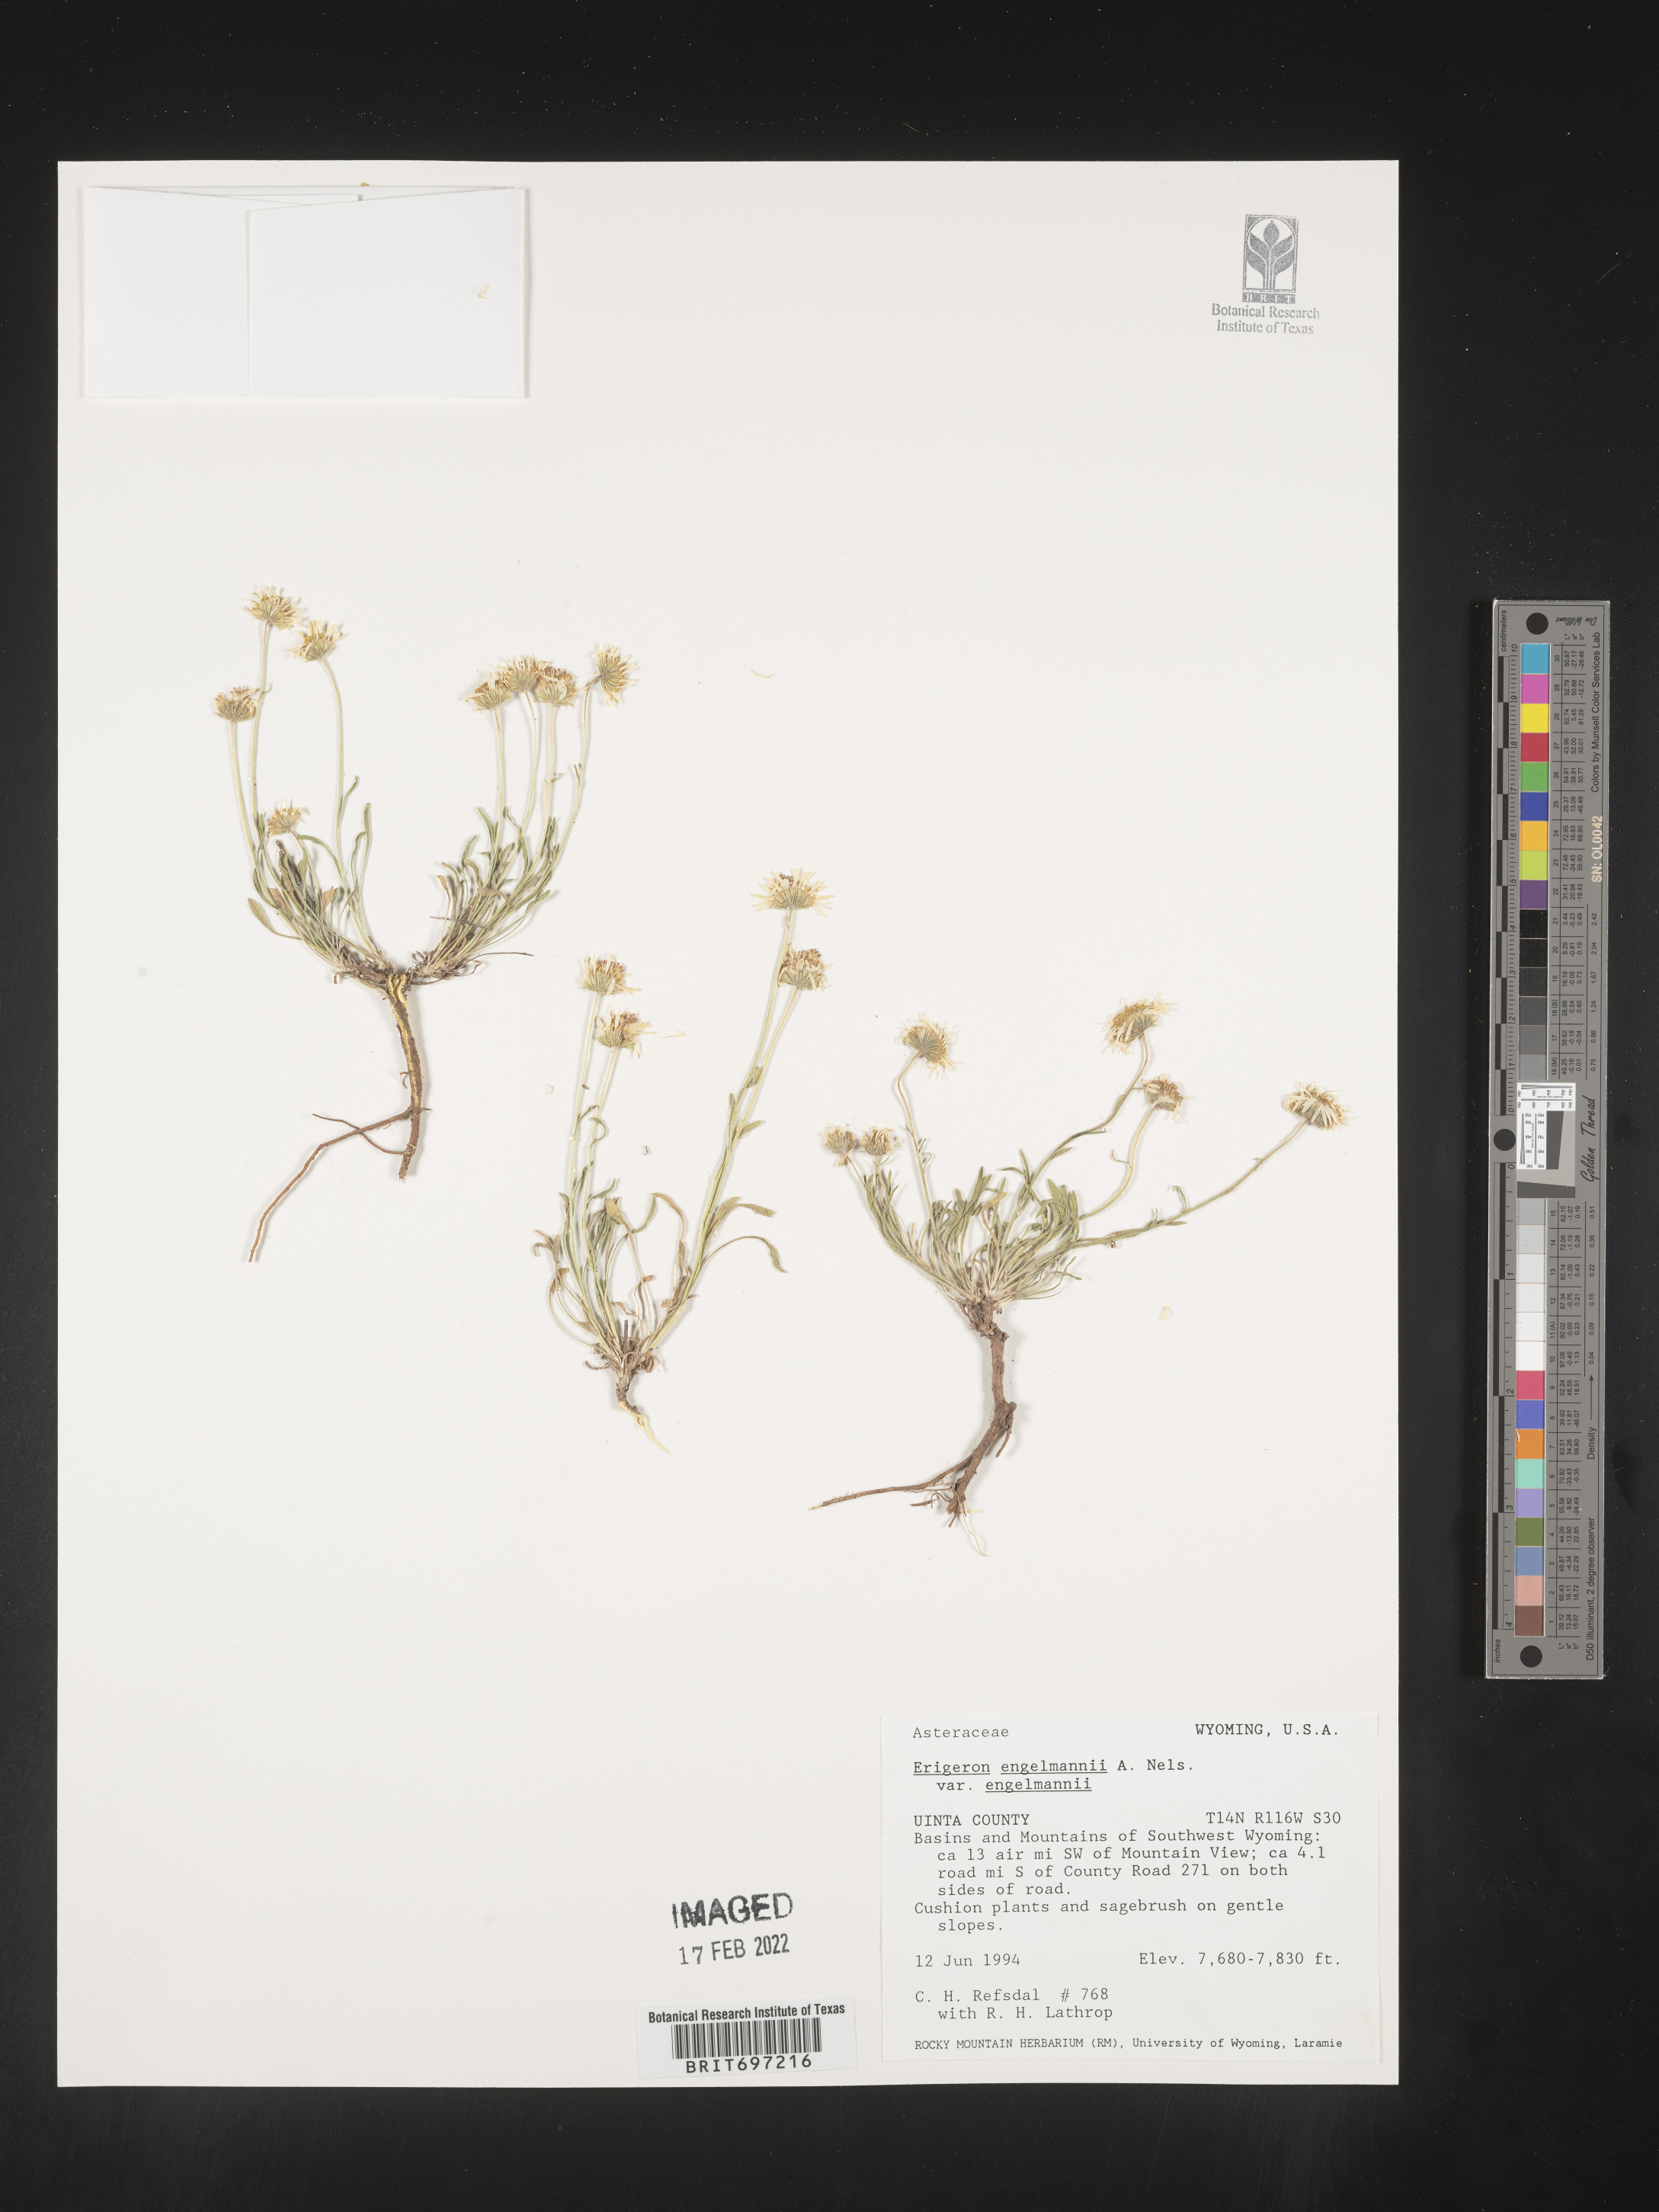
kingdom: Plantae
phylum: Tracheophyta
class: Magnoliopsida
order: Asterales
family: Asteraceae
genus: Erigeron
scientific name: Erigeron engelmannii
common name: Engelmann's fleabane
